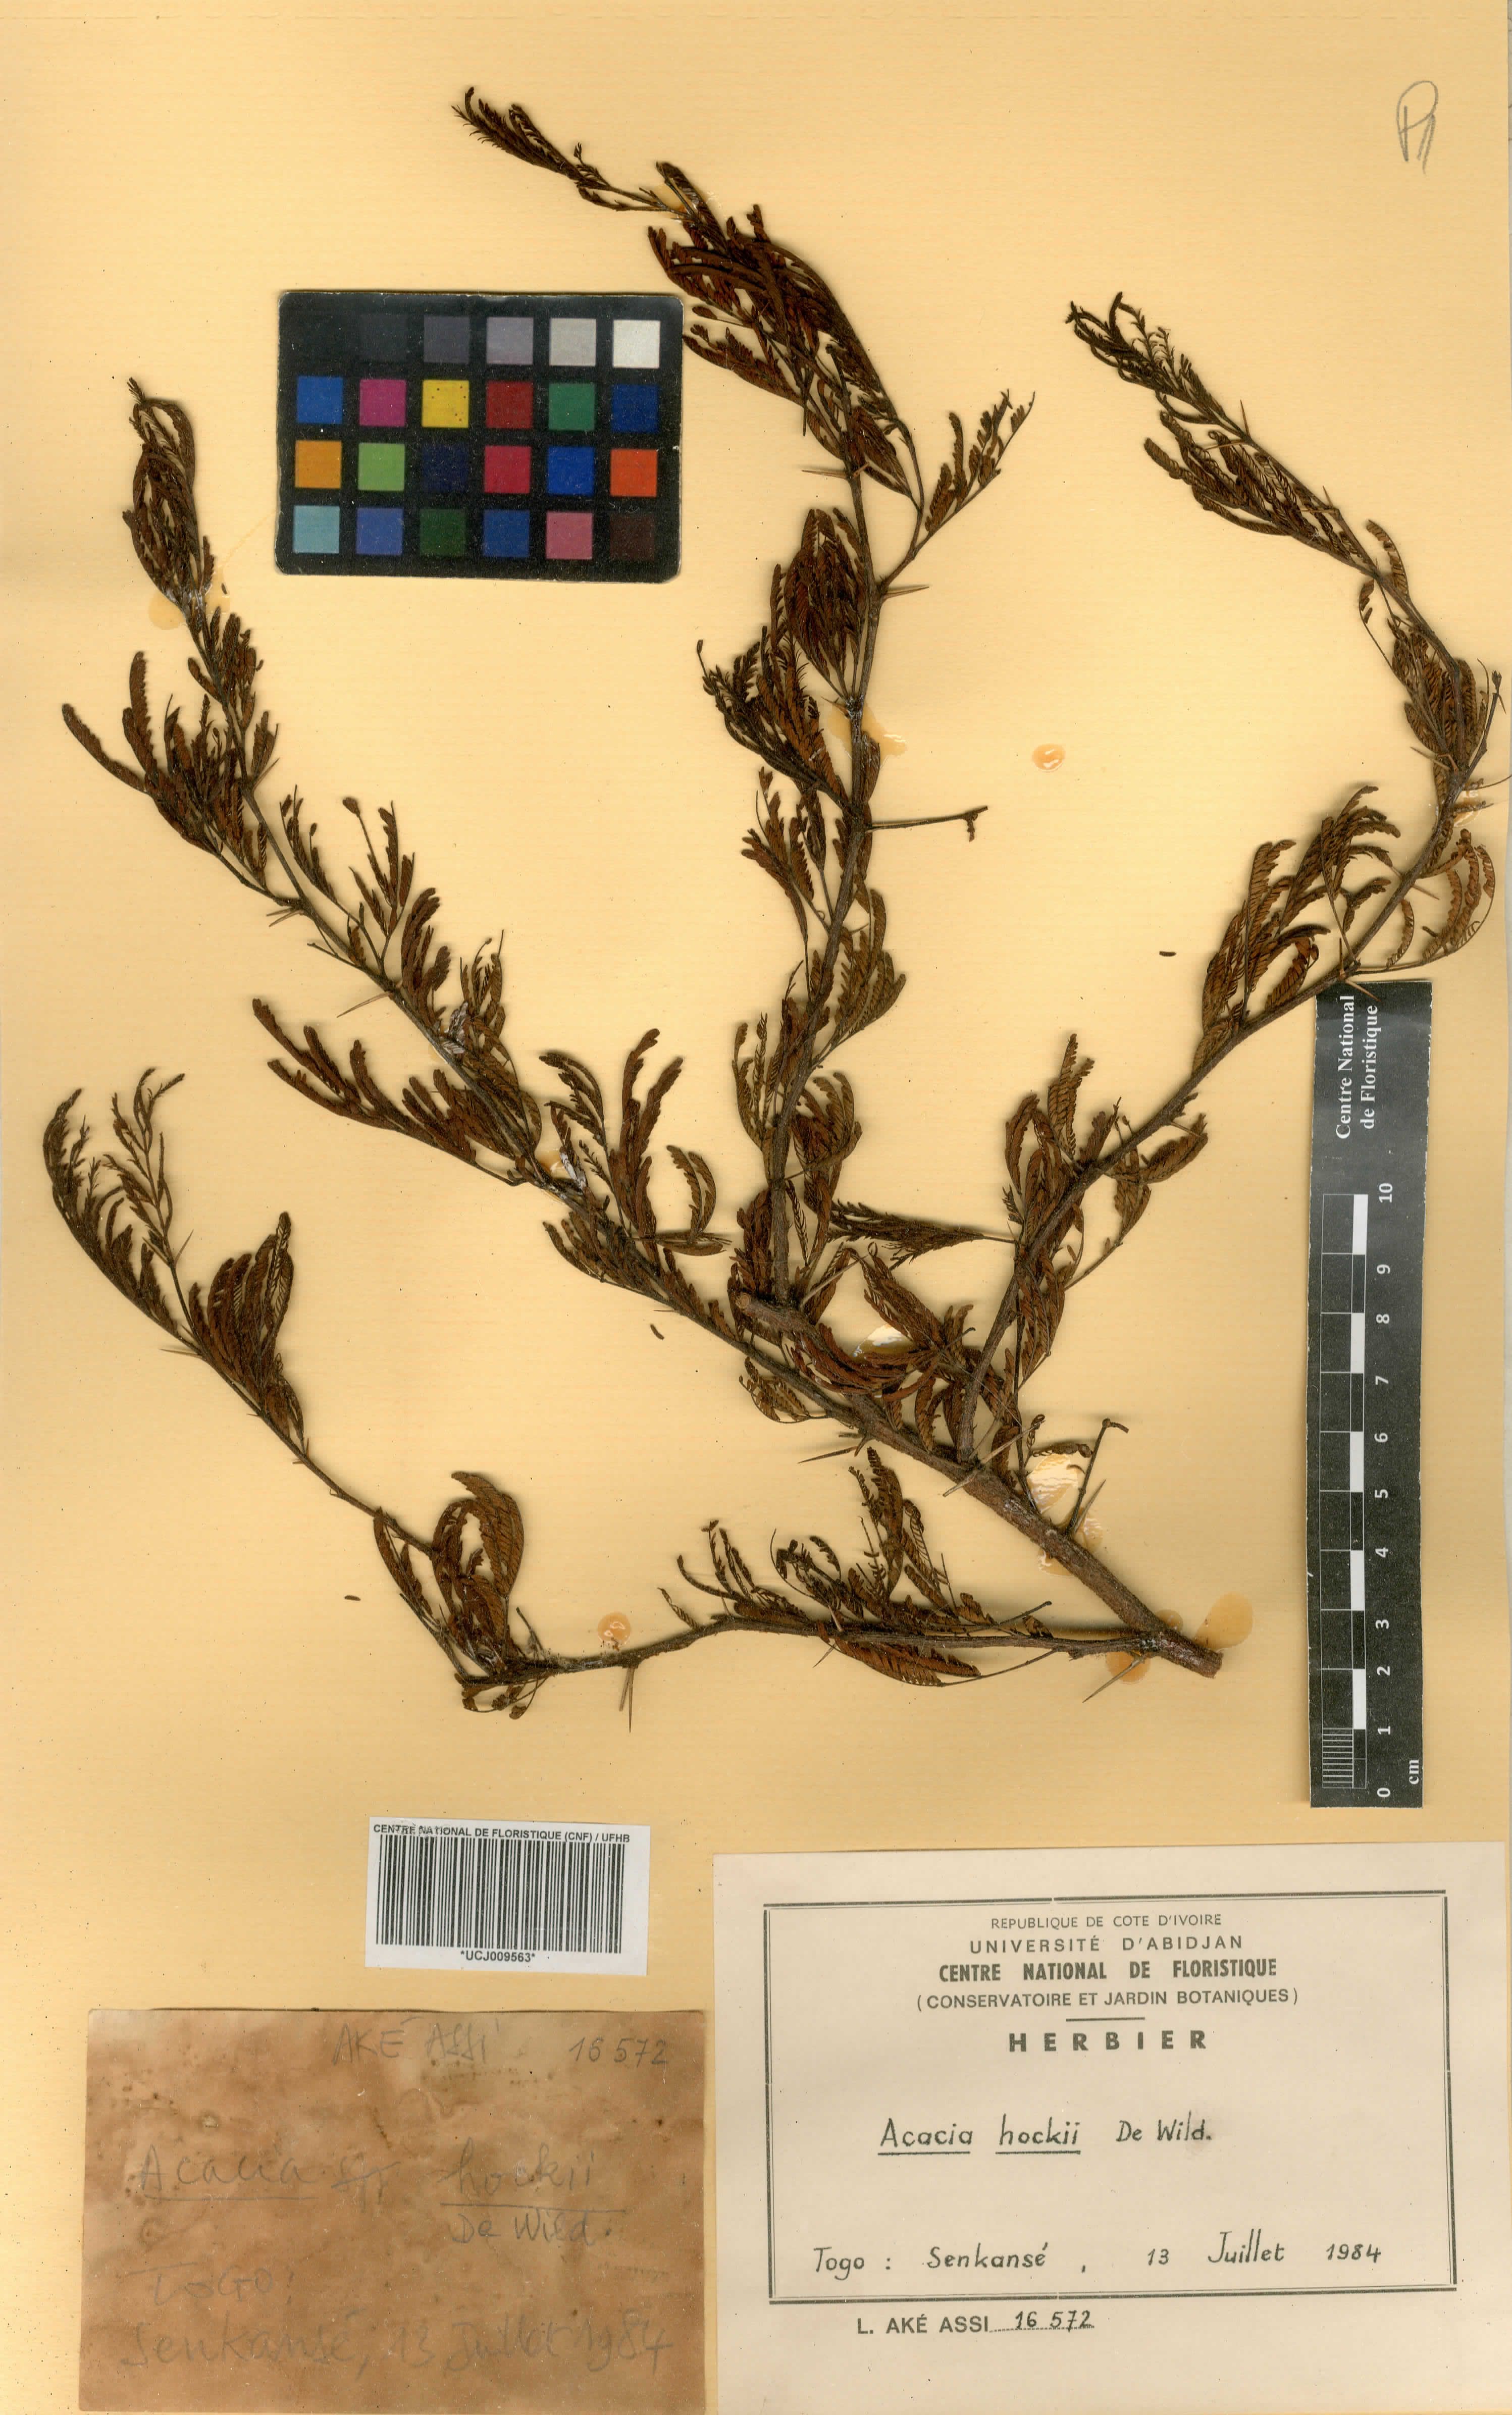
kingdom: Plantae
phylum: Tracheophyta
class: Magnoliopsida
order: Fabales
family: Fabaceae
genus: Vachellia
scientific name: Vachellia hockii
